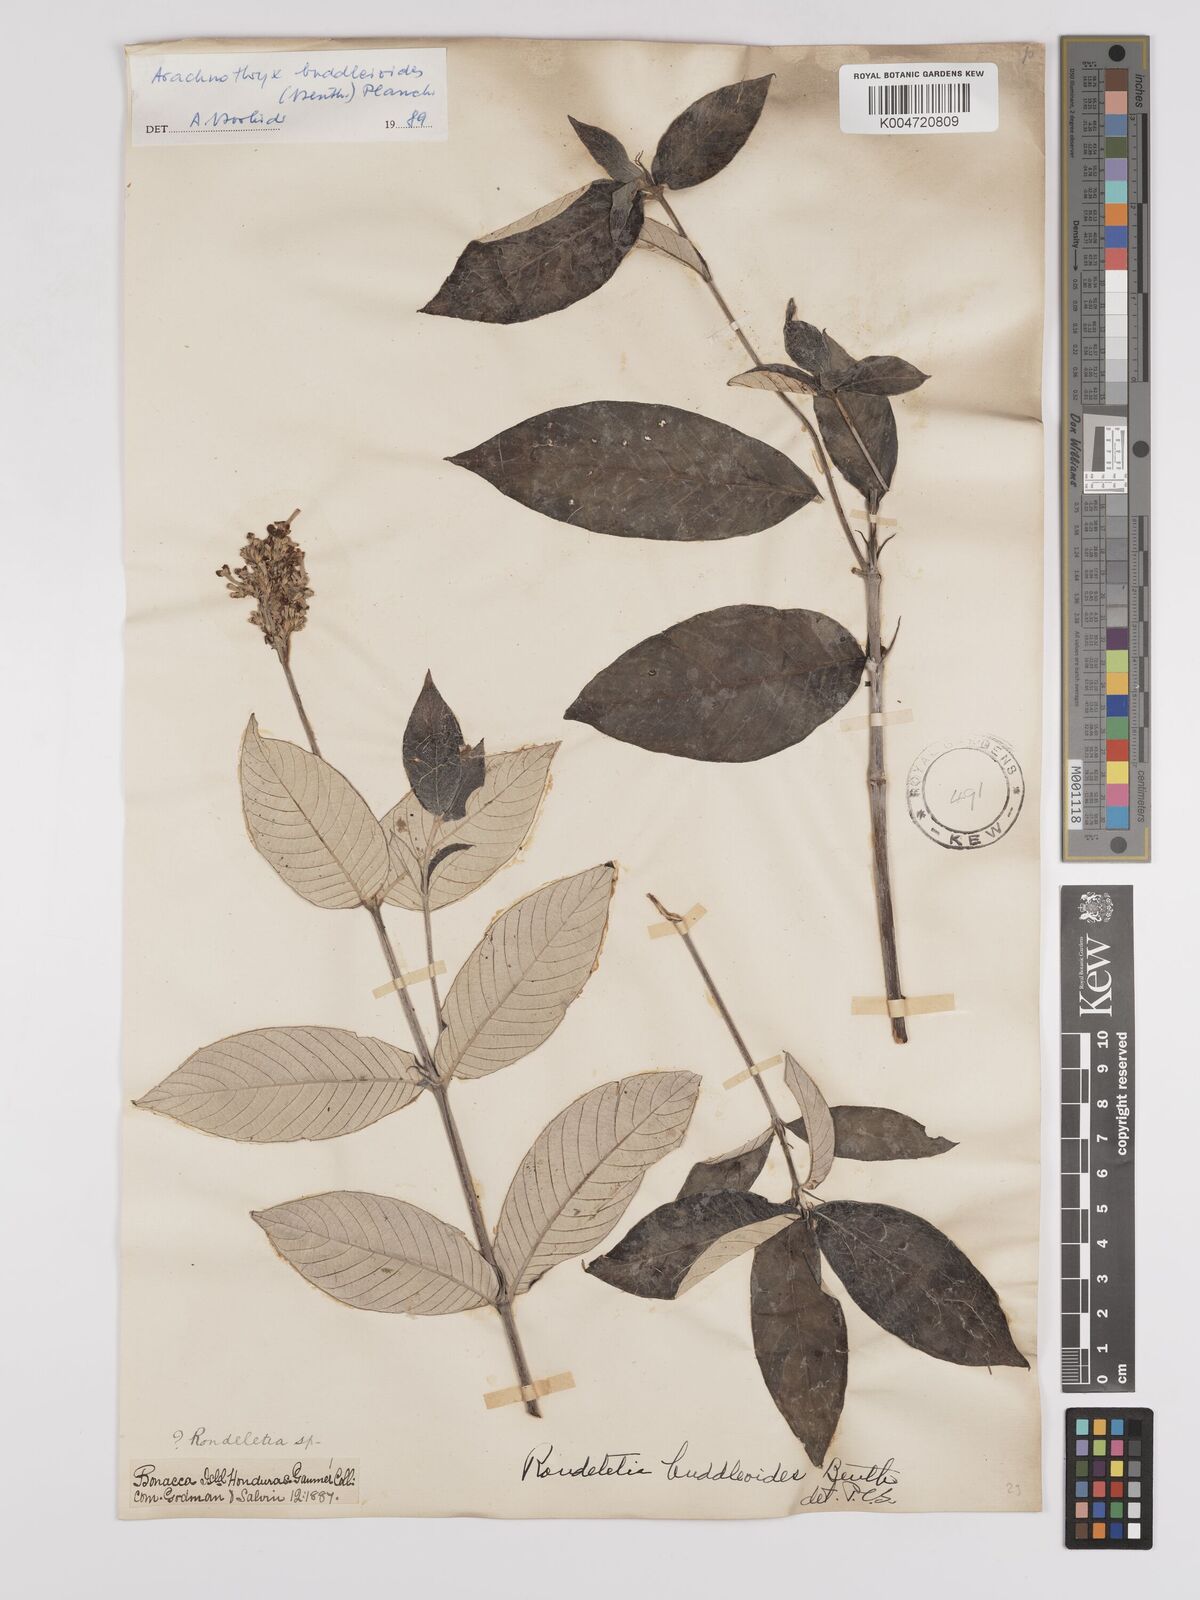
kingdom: Plantae
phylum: Tracheophyta
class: Magnoliopsida
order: Gentianales
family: Rubiaceae
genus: Arachnothryx
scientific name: Arachnothryx buddleioides
